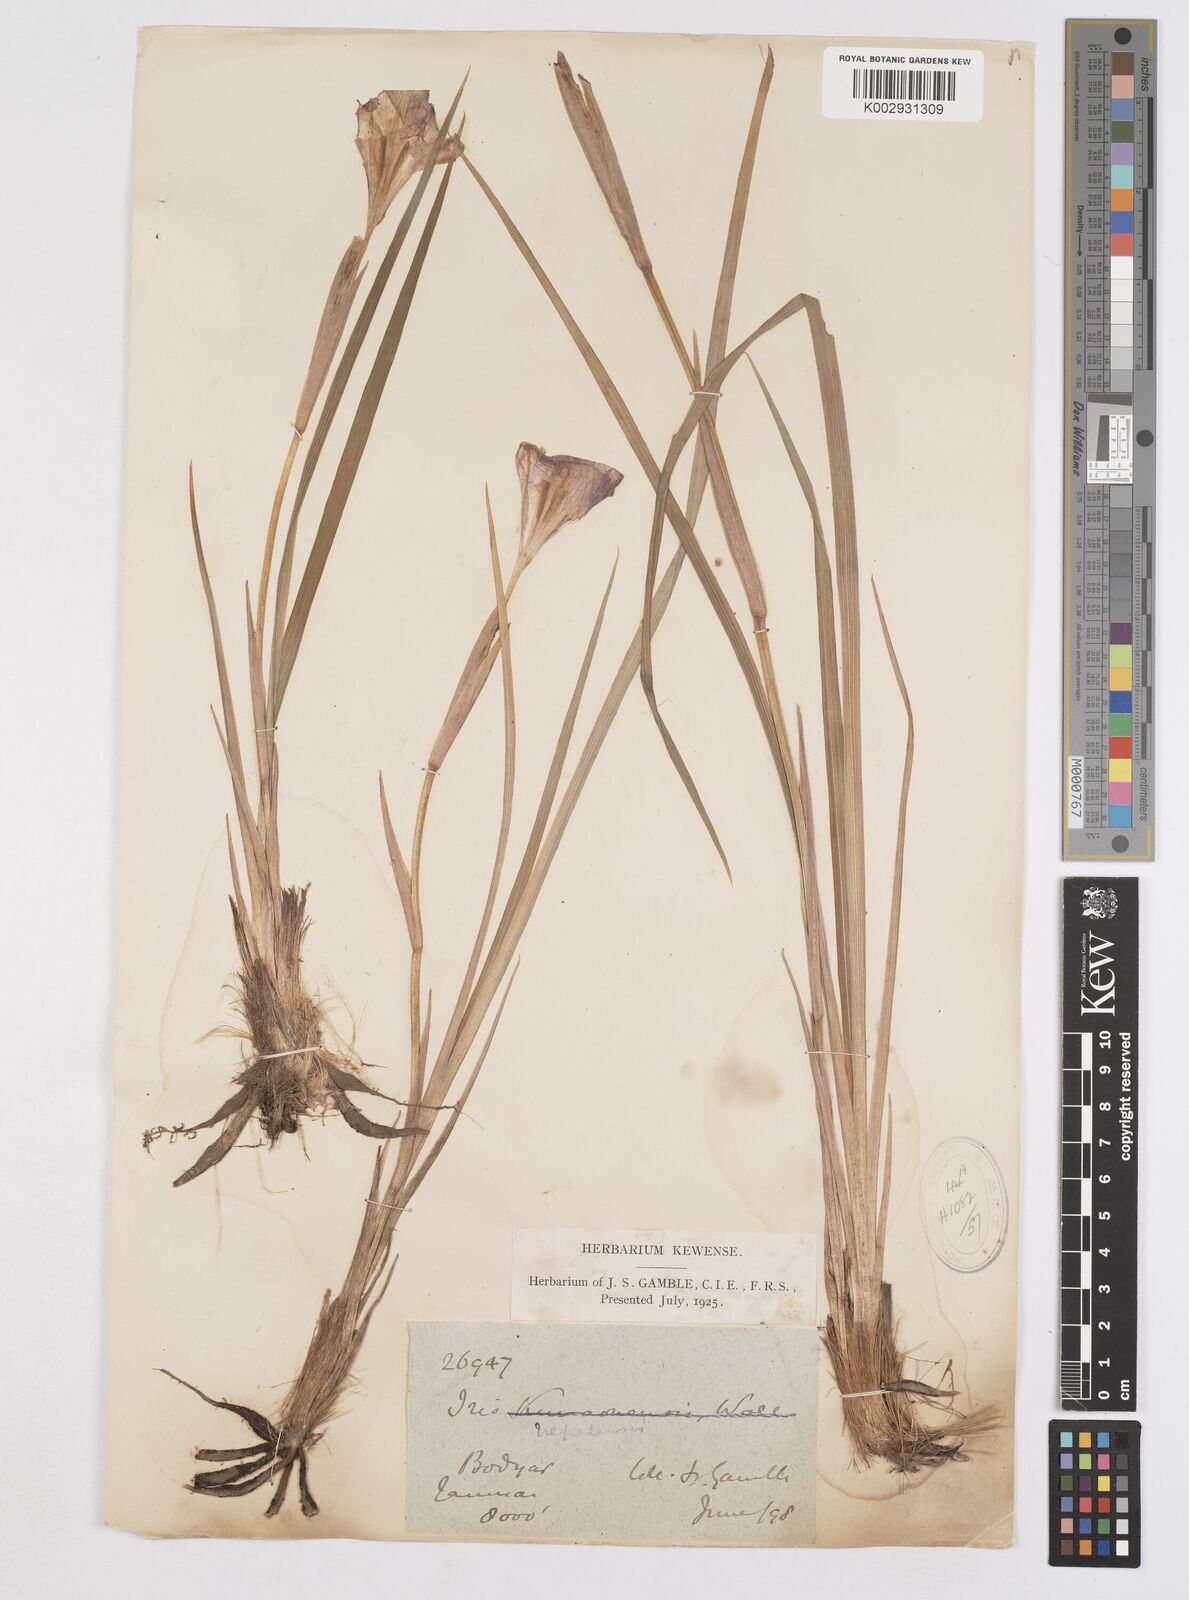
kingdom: Plantae
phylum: Tracheophyta
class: Liliopsida
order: Asparagales
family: Iridaceae
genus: Iris
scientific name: Iris decora
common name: Nepal iris
